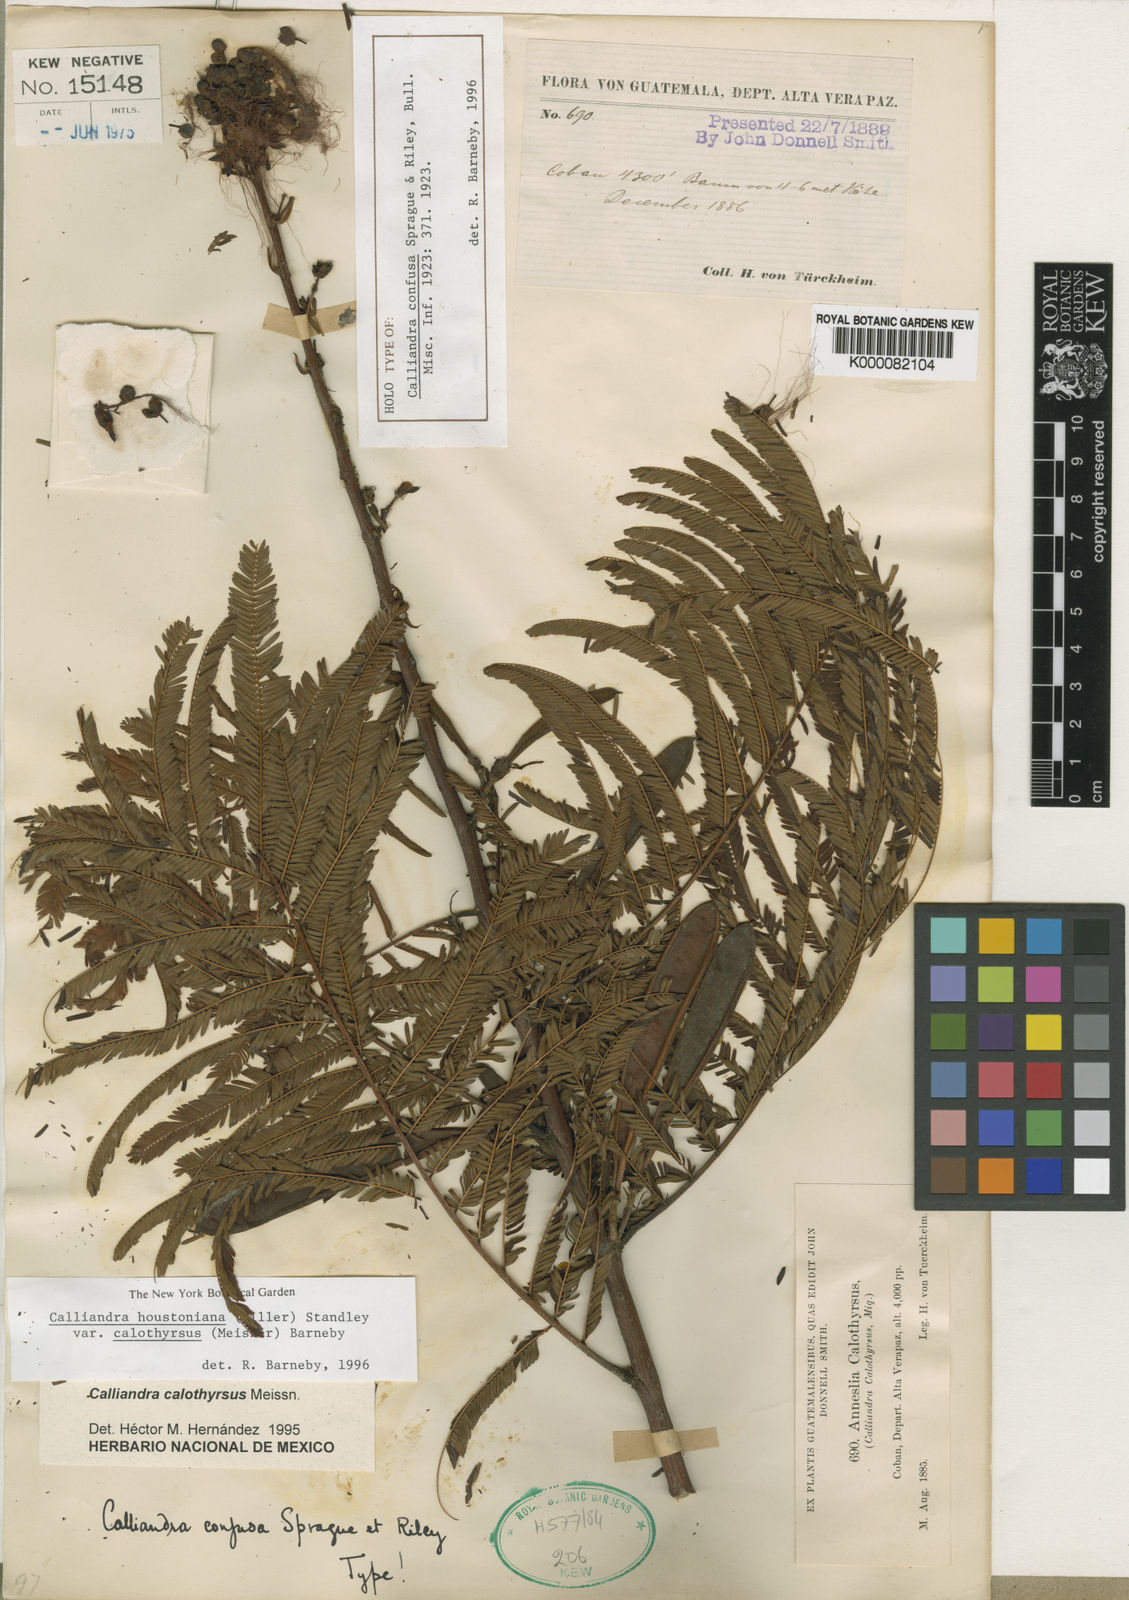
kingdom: Plantae
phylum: Tracheophyta
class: Magnoliopsida
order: Fabales
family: Fabaceae
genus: Calliandra
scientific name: Calliandra houstoniana
